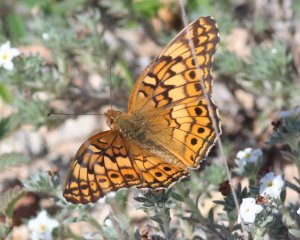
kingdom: Animalia
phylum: Arthropoda
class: Insecta
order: Lepidoptera
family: Nymphalidae
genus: Euptoieta
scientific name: Euptoieta claudia
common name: Variegated Fritillary
